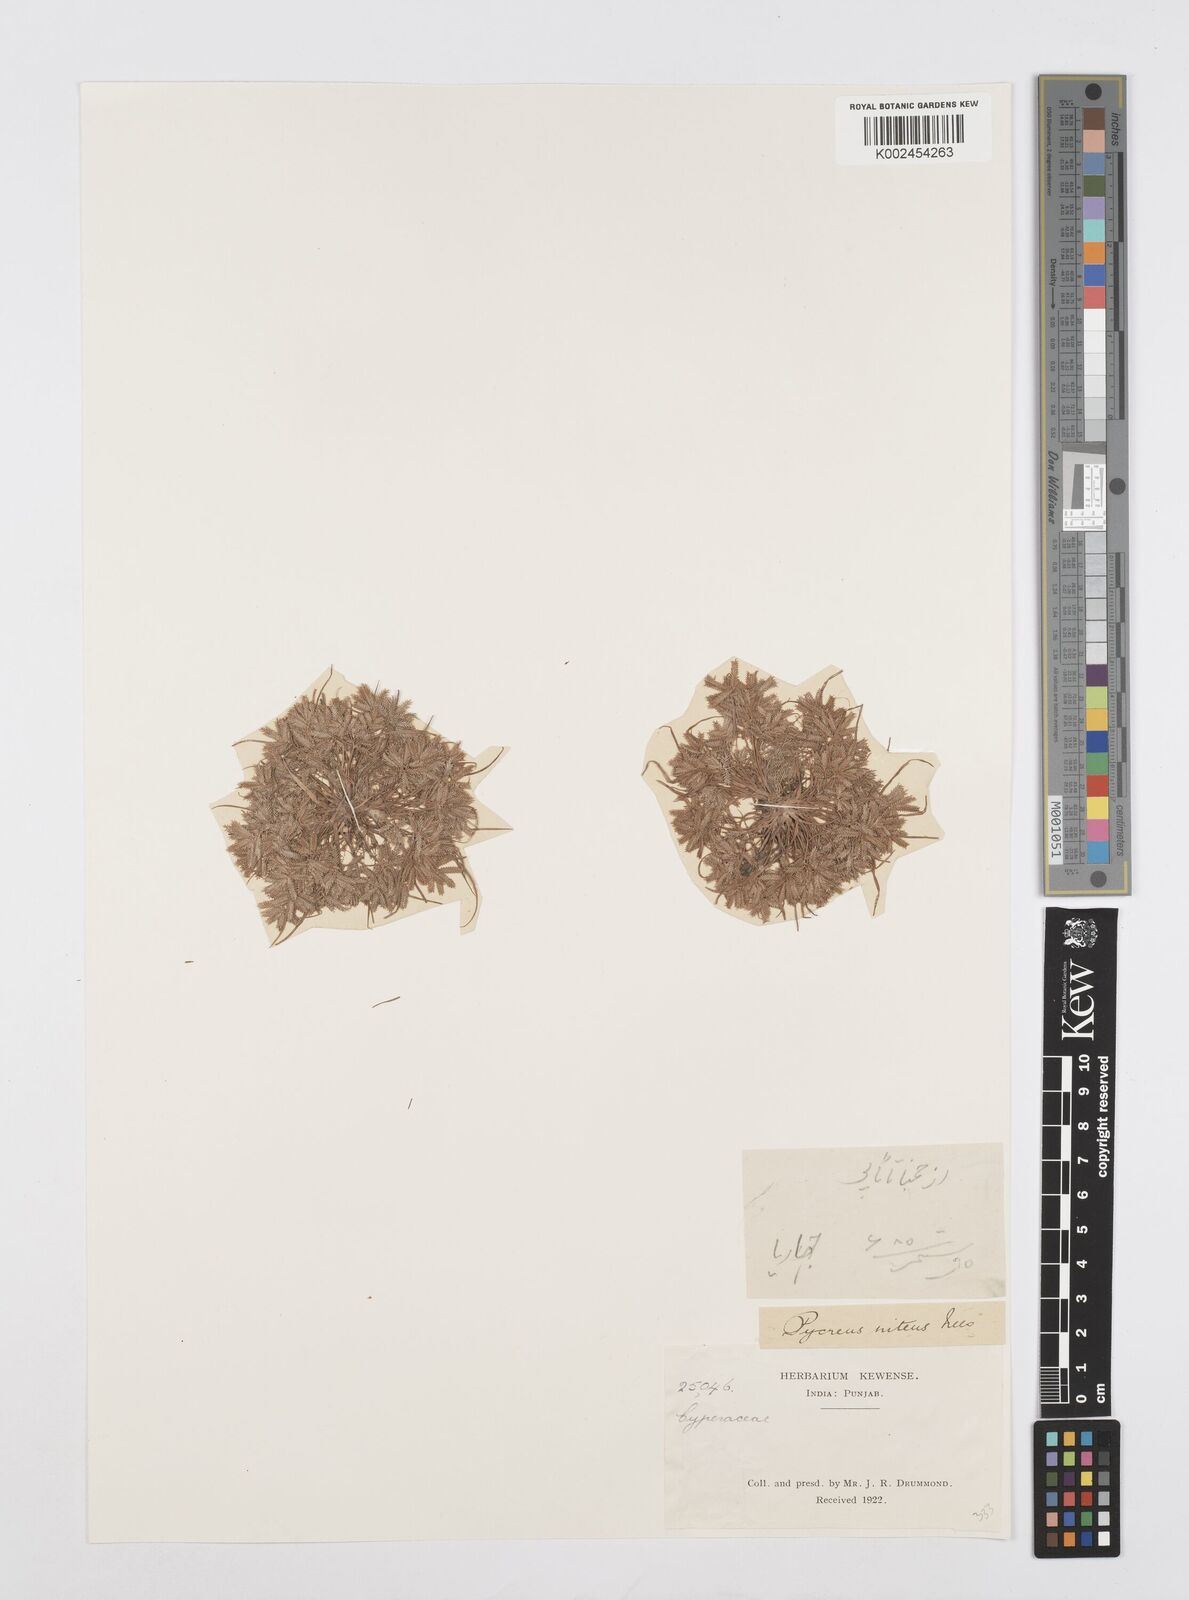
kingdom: Plantae
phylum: Tracheophyta
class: Liliopsida
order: Poales
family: Cyperaceae
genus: Cyperus
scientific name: Cyperus pumilus
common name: Low flatsedge
